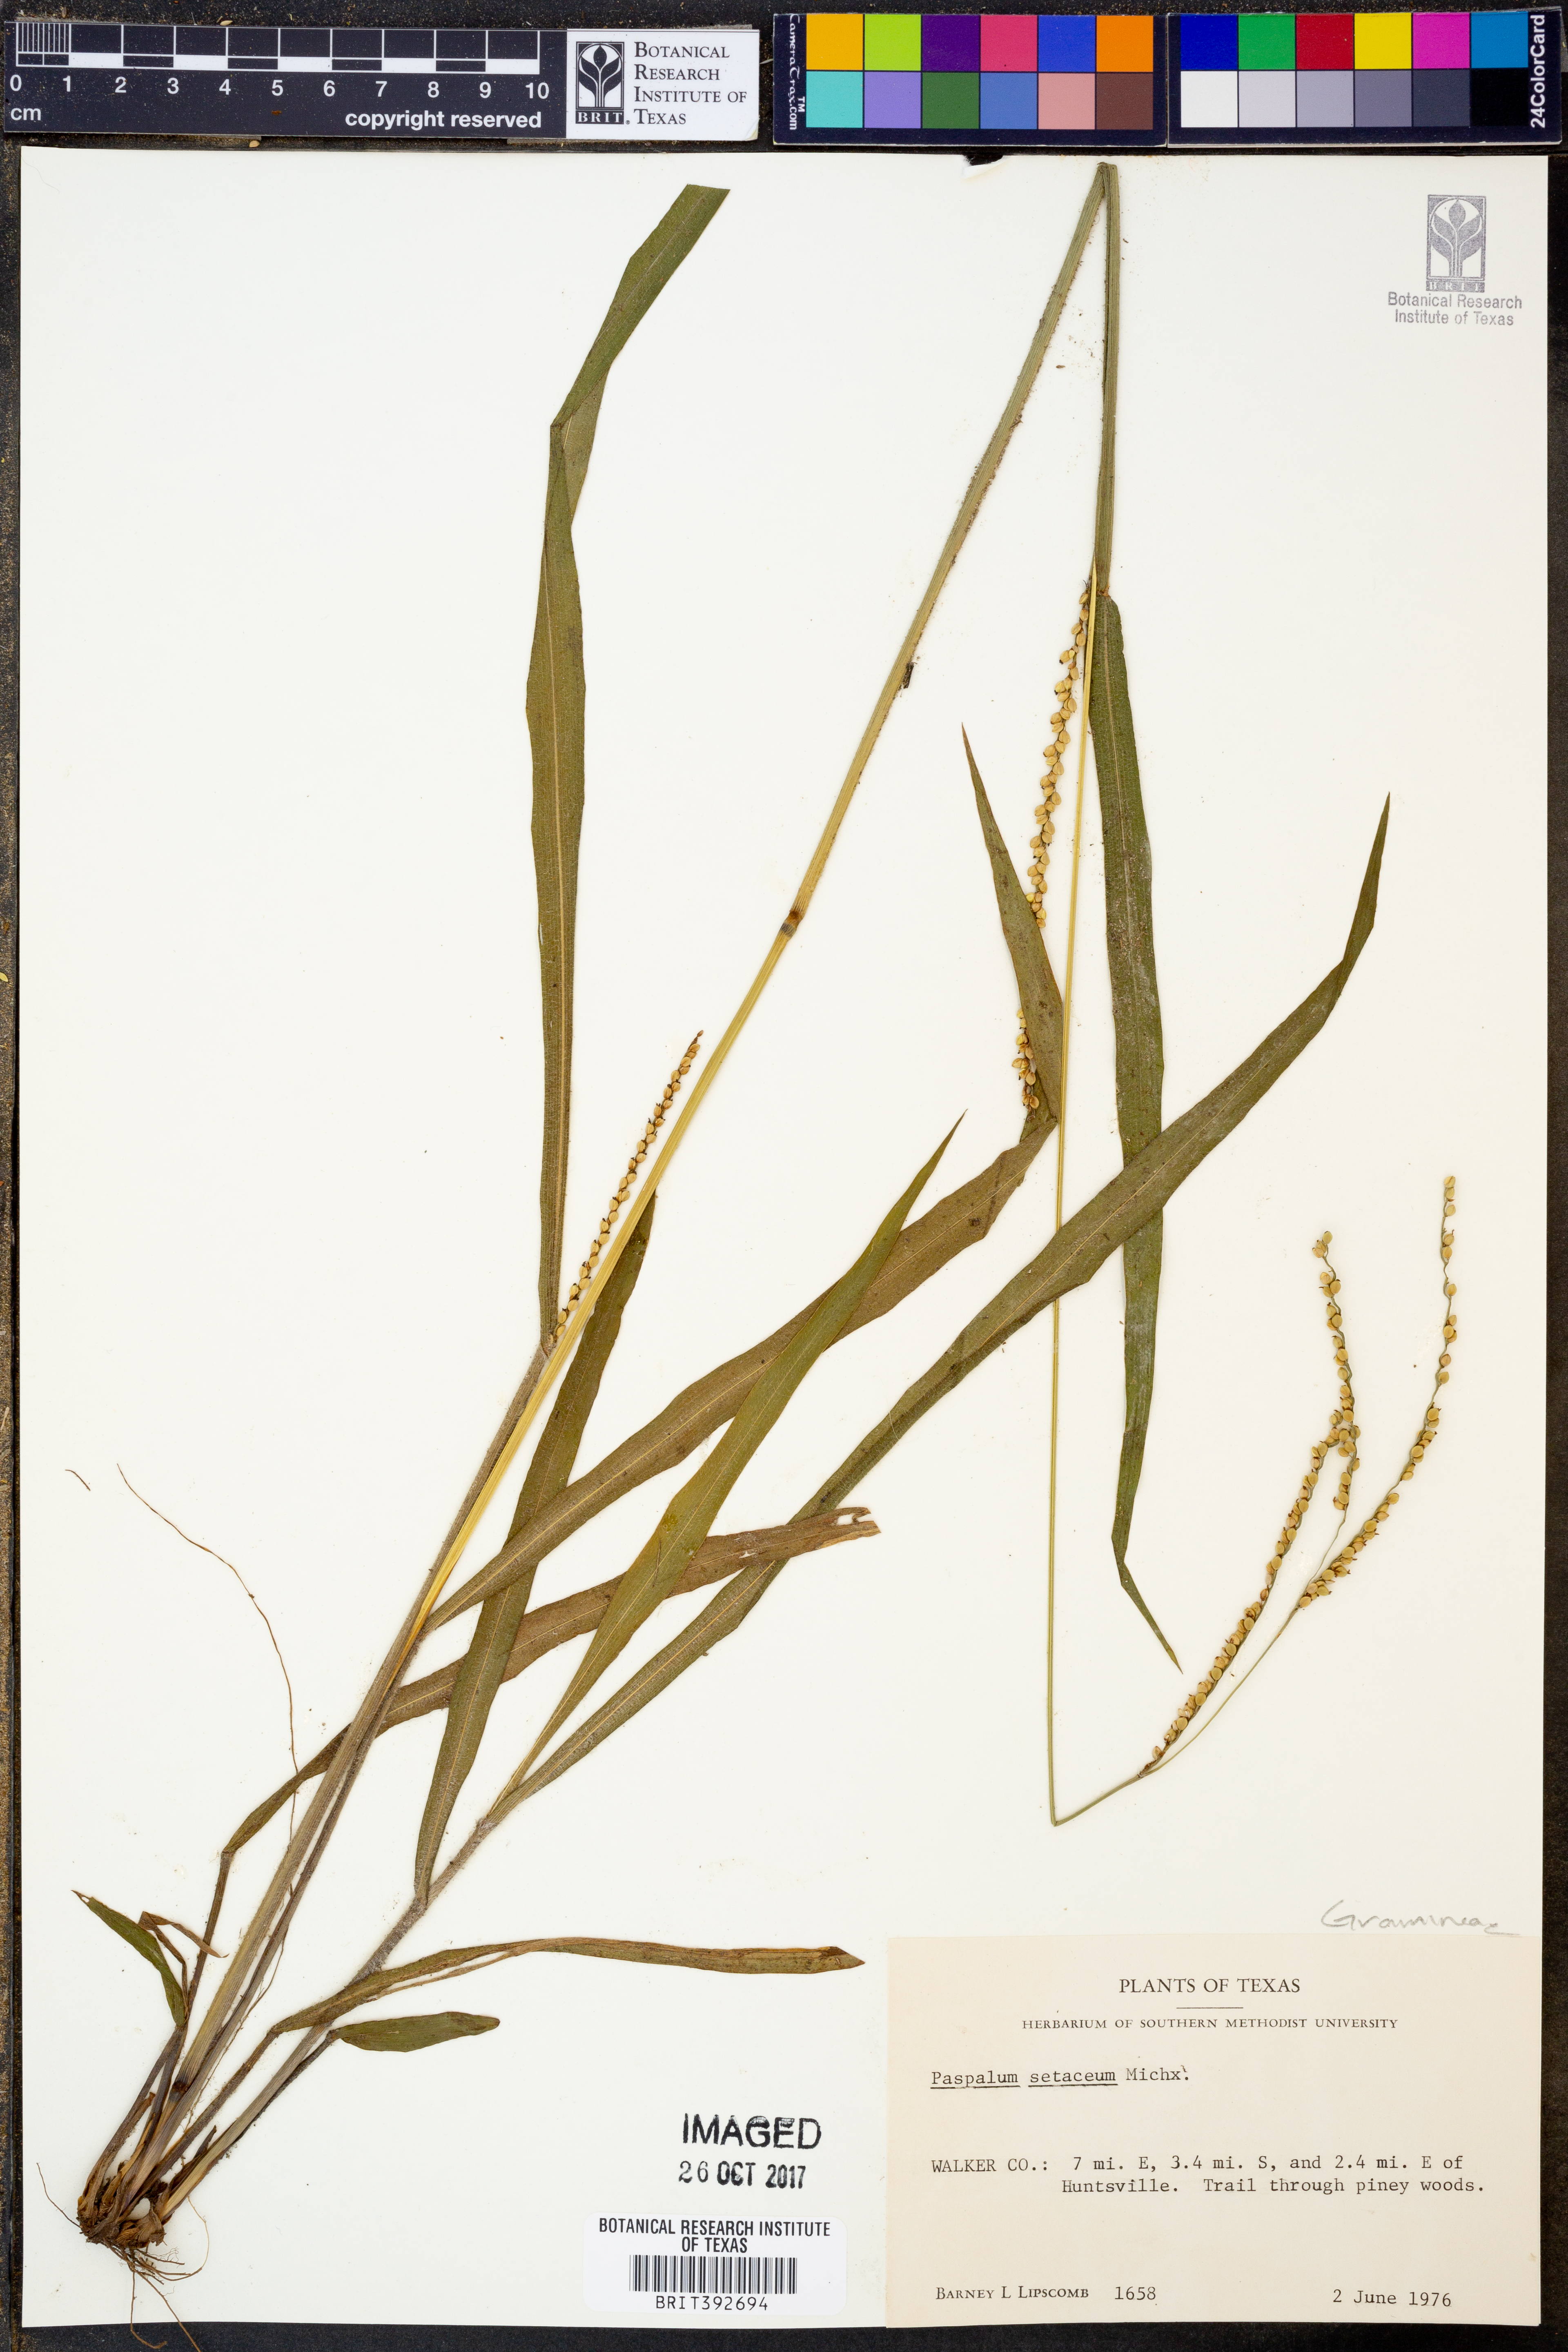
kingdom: Plantae
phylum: Tracheophyta
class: Liliopsida
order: Poales
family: Poaceae
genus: Paspalum
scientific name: Paspalum setaceum
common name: Slender paspalum
